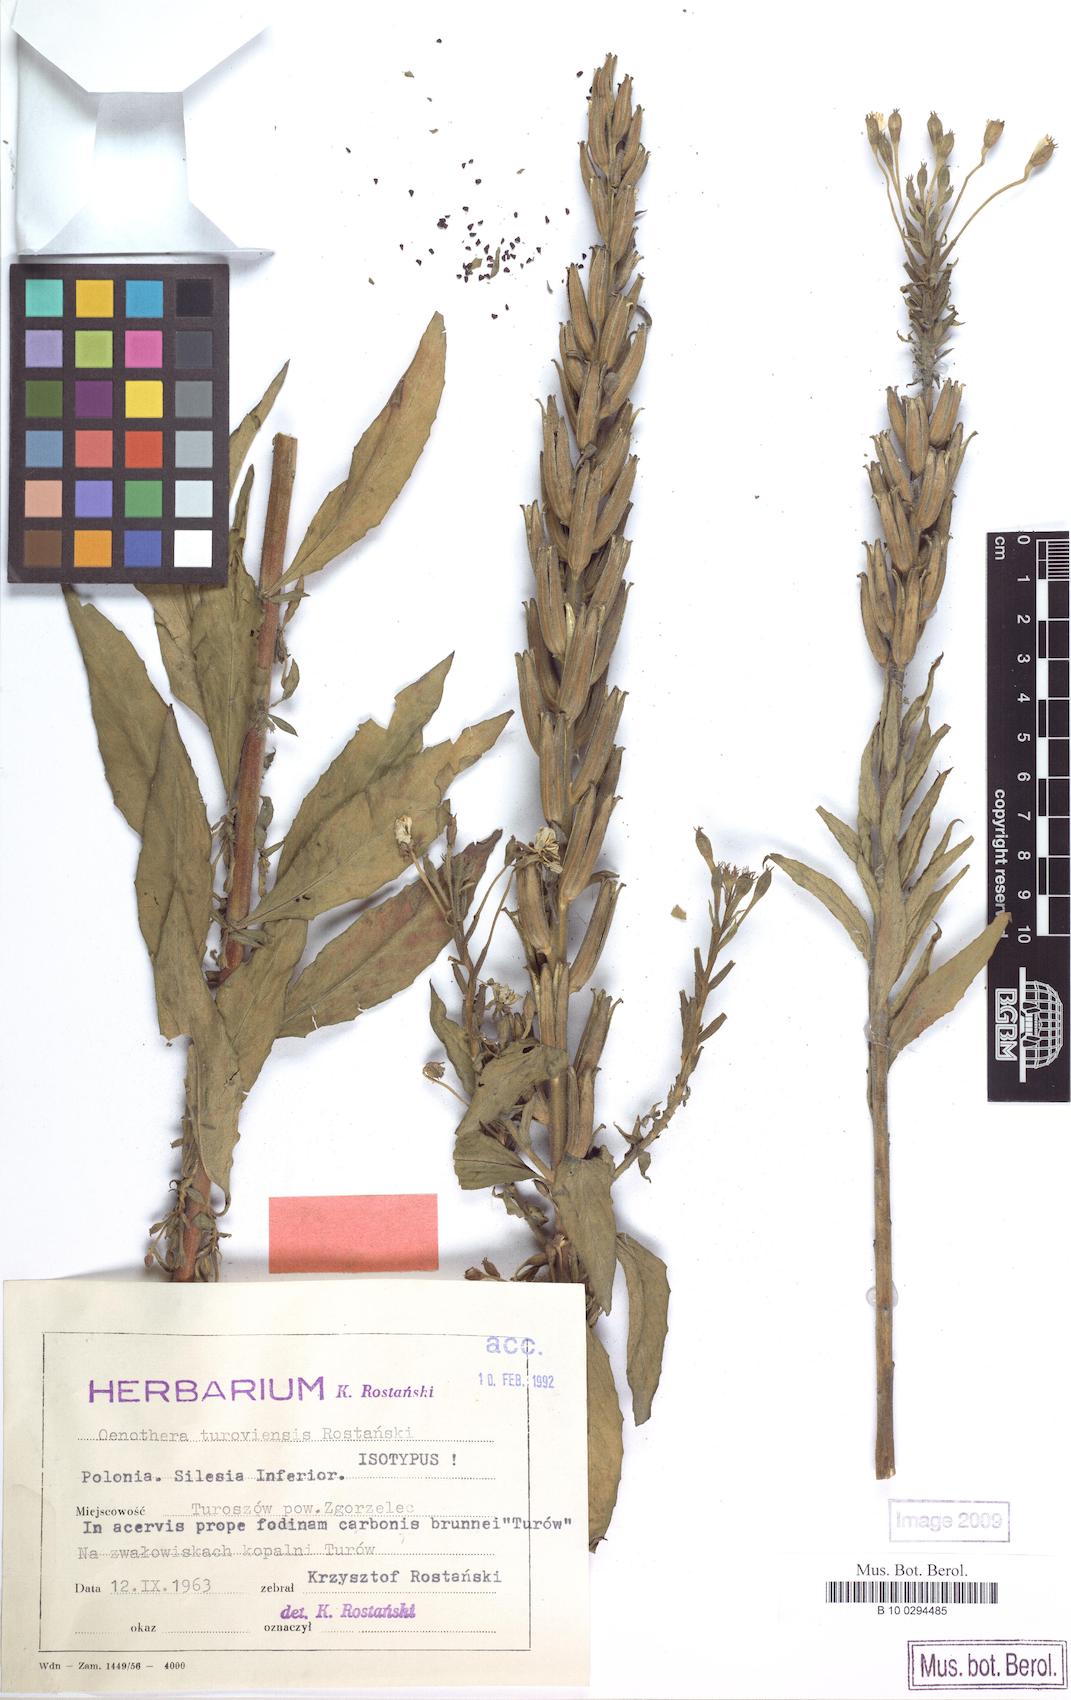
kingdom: Plantae
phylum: Tracheophyta
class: Magnoliopsida
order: Myrtales
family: Onagraceae
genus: Oenothera
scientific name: Oenothera parviflora
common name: Least evening-primrose
